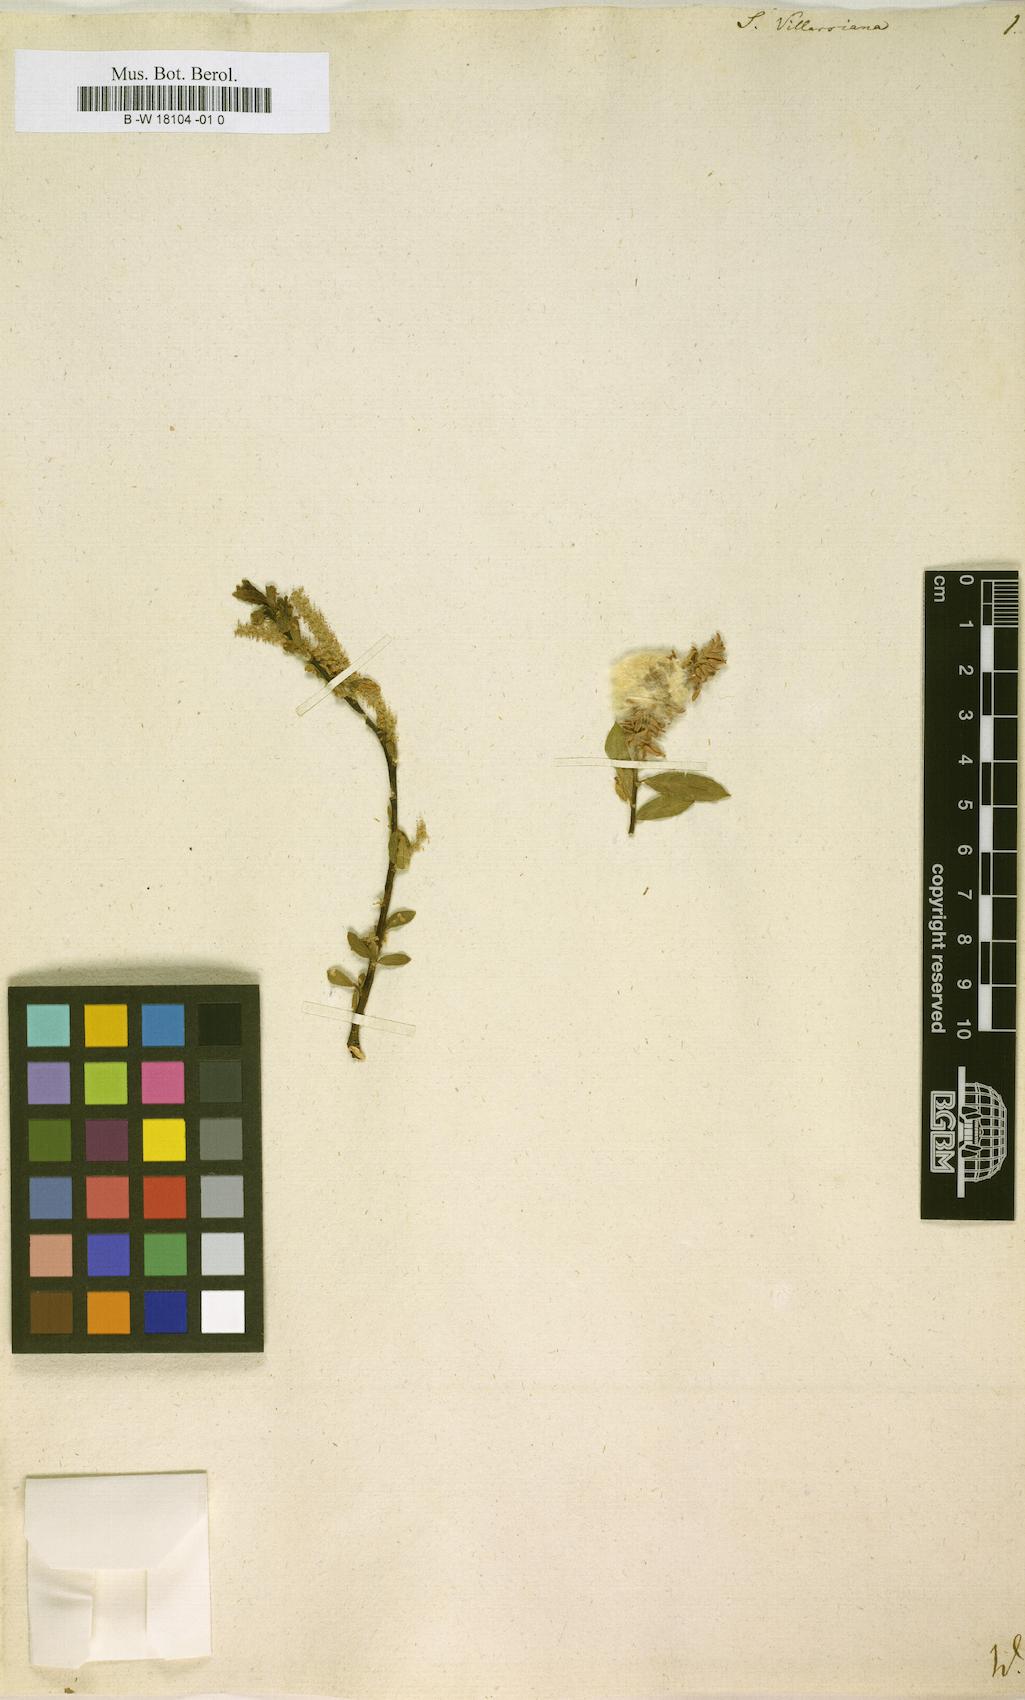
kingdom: Plantae
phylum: Tracheophyta
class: Magnoliopsida
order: Malpighiales
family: Salicaceae
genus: Salix
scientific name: Salix triandra
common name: Almond willow
